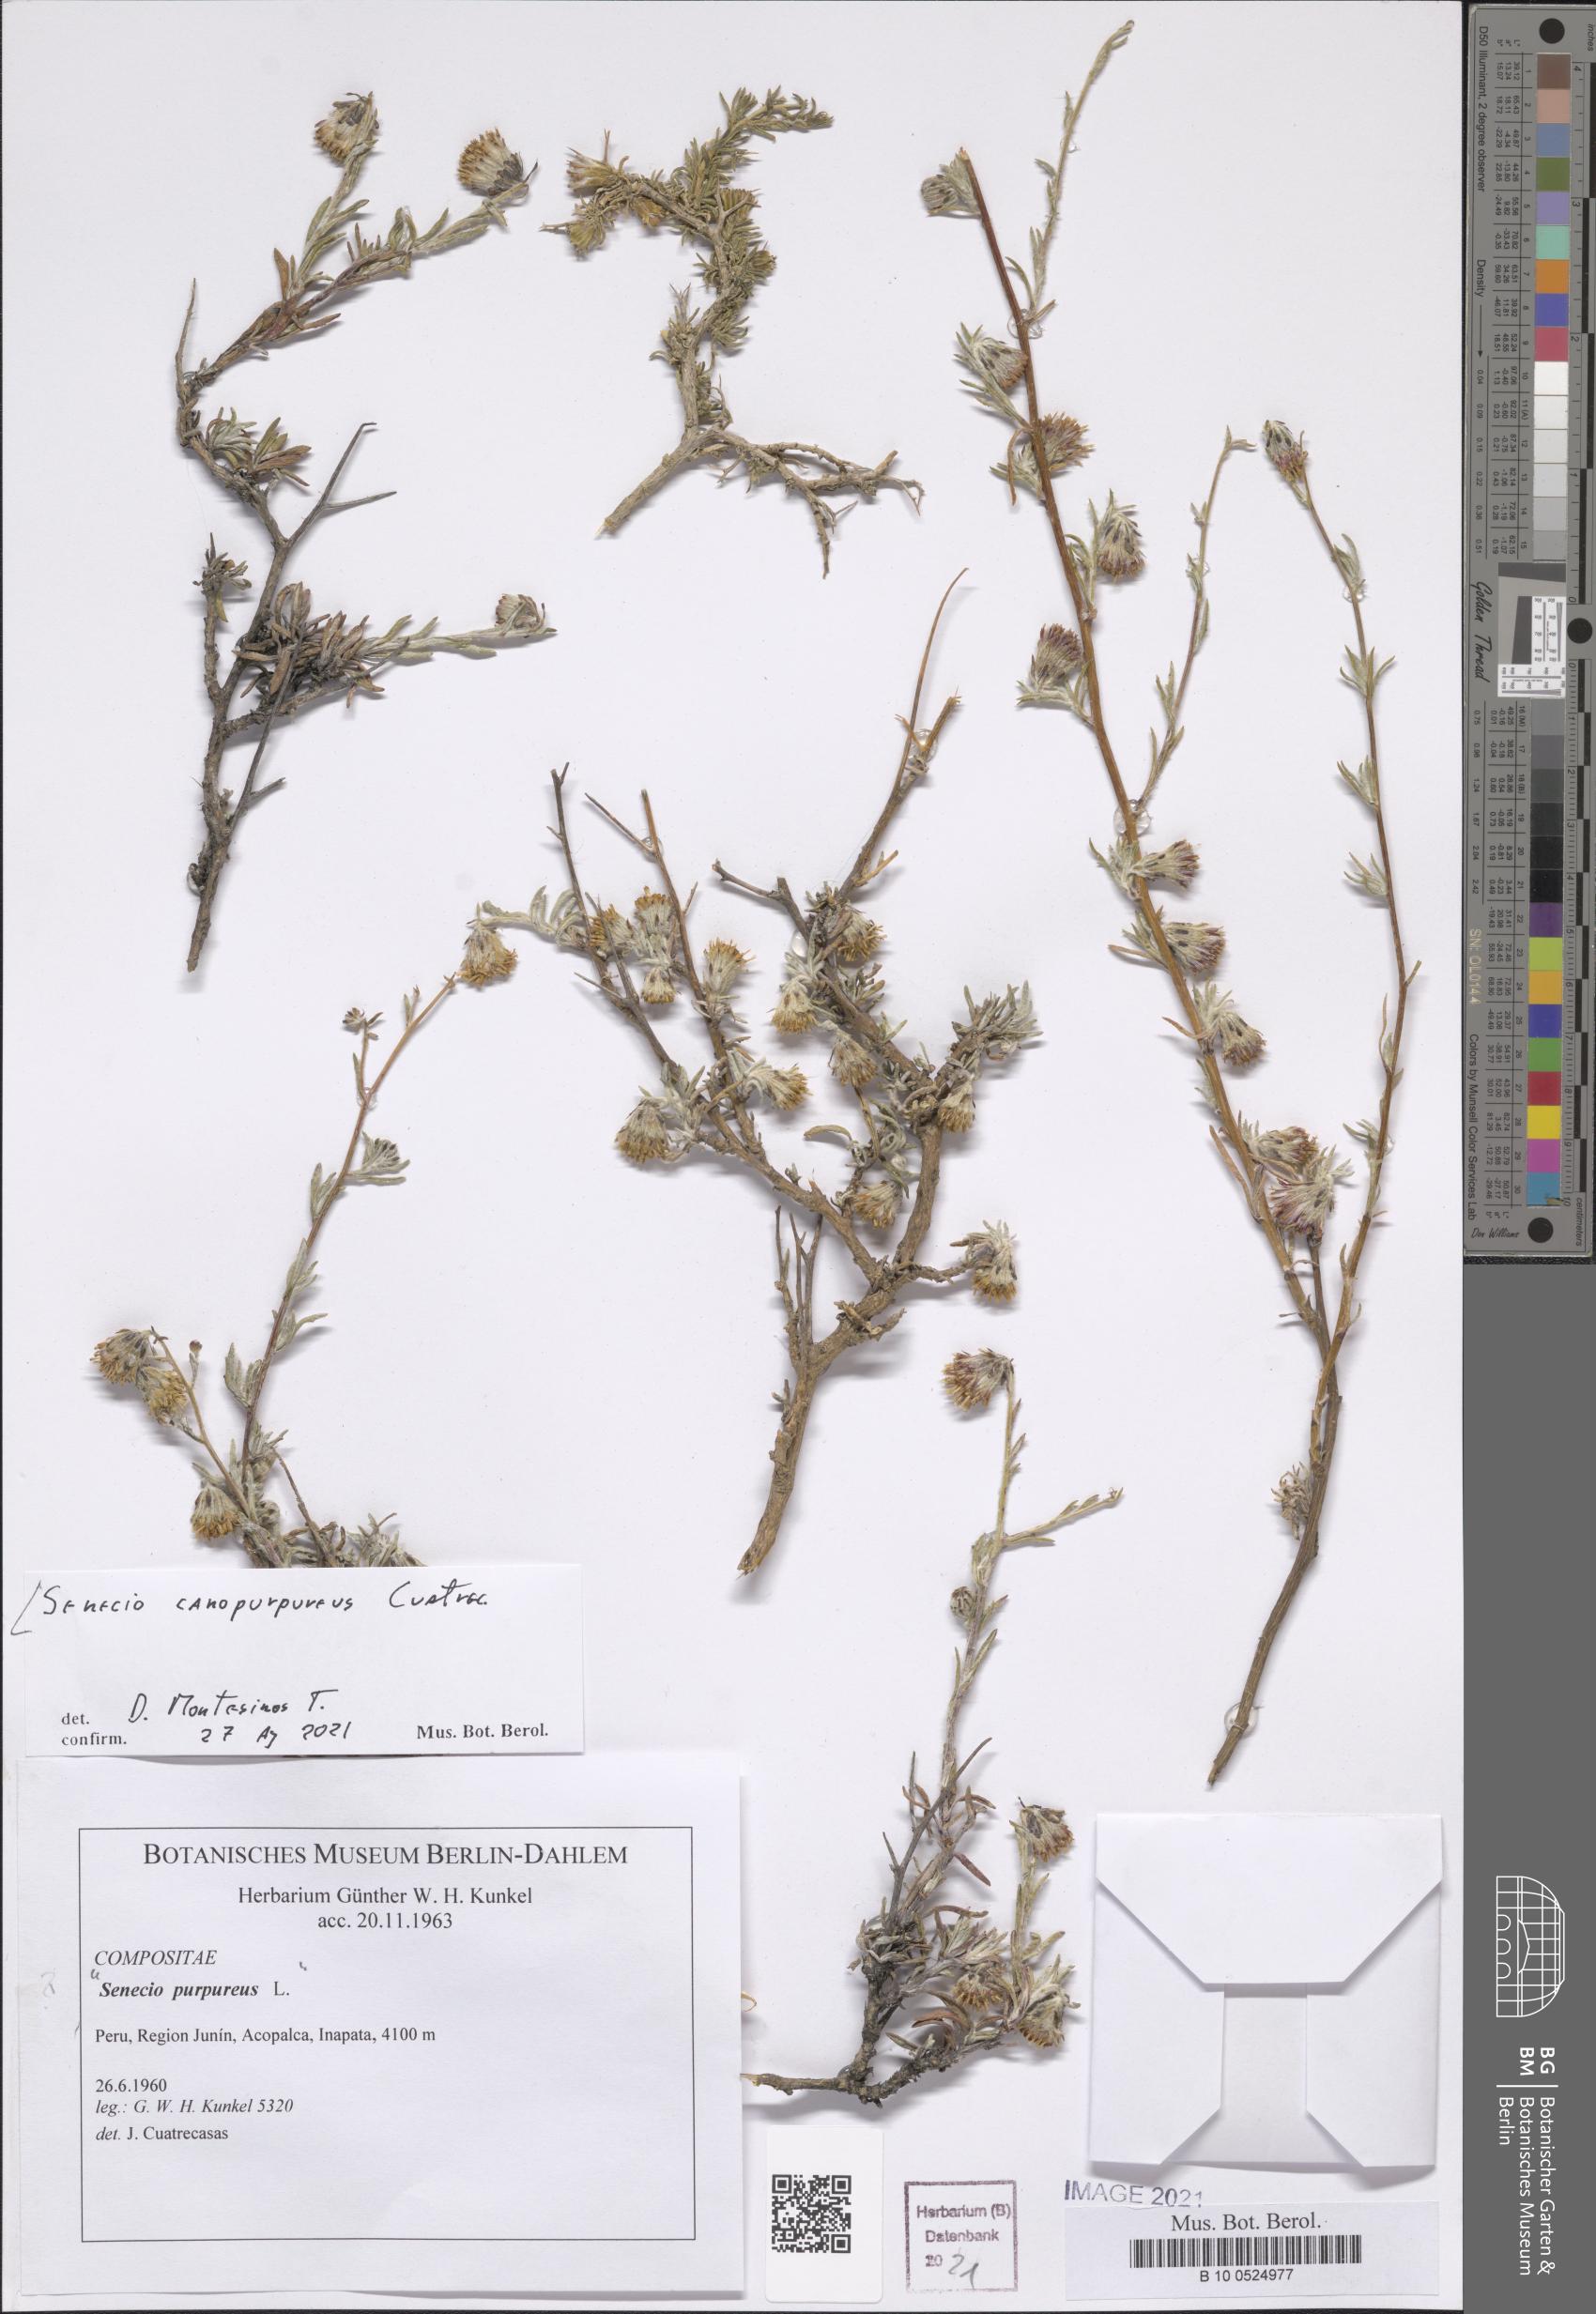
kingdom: Plantae
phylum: Tracheophyta
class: Magnoliopsida
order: Asterales
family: Asteraceae
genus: Senecio
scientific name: Senecio canopurpureus
